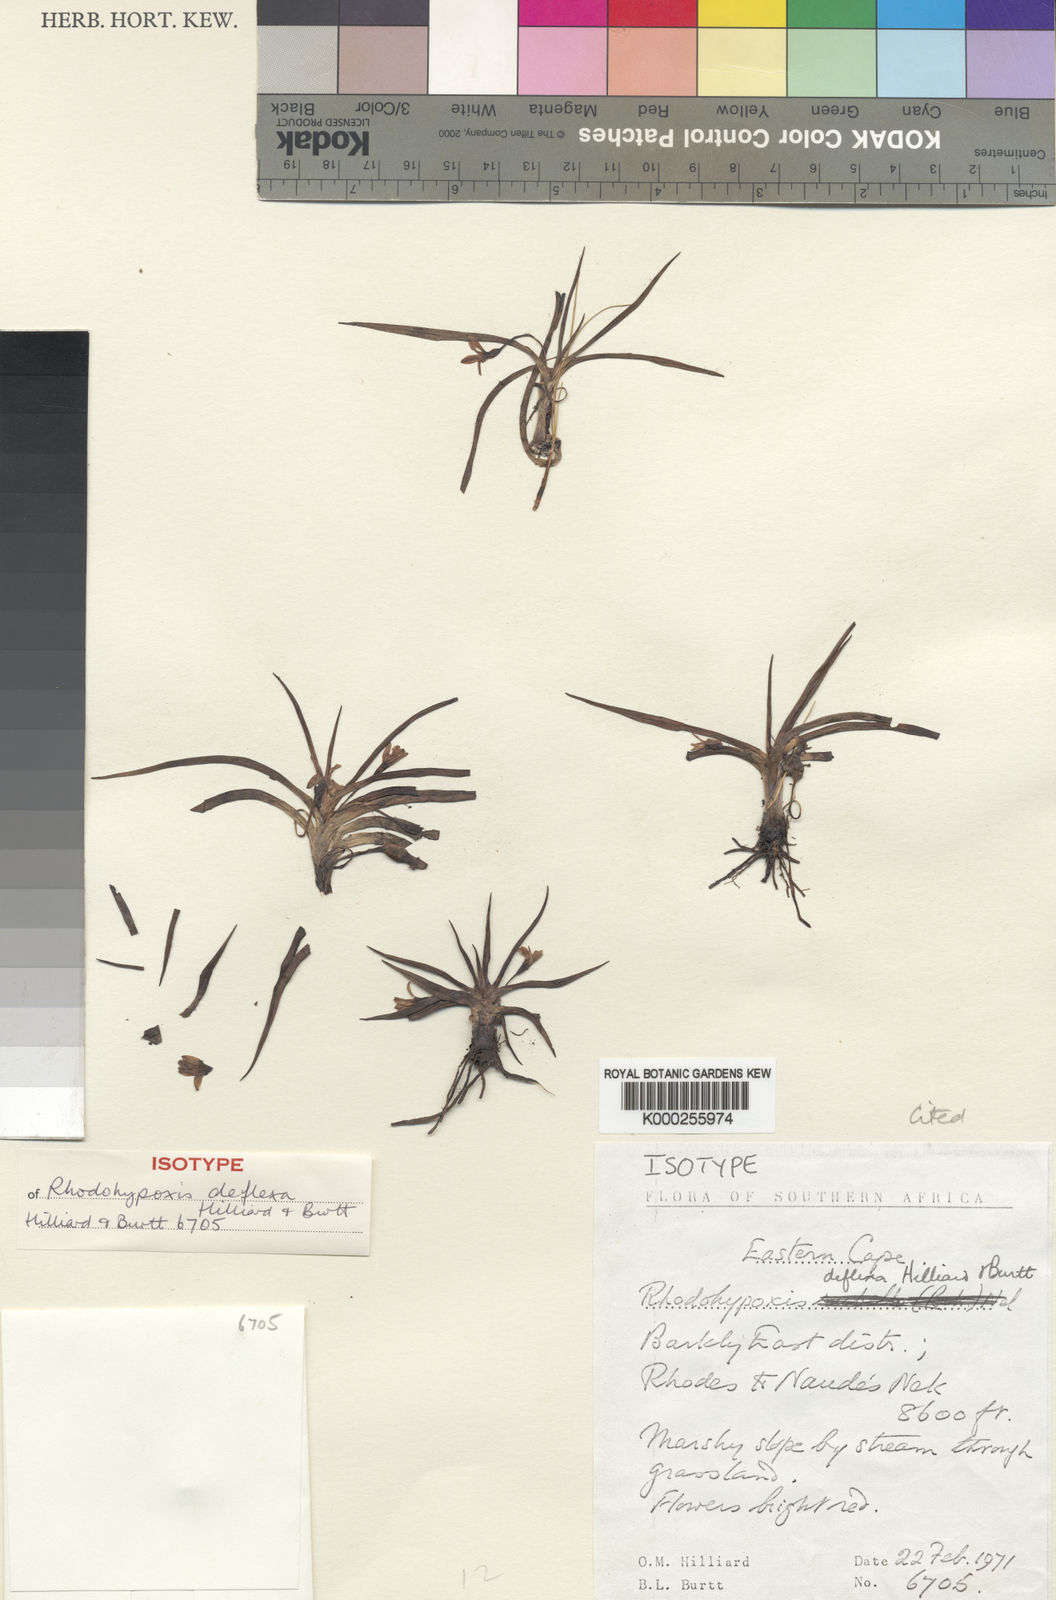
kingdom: Plantae
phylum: Tracheophyta
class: Liliopsida
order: Asparagales
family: Hypoxidaceae
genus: Hypoxis
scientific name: Hypoxis Rhodohypoxis deflexa
